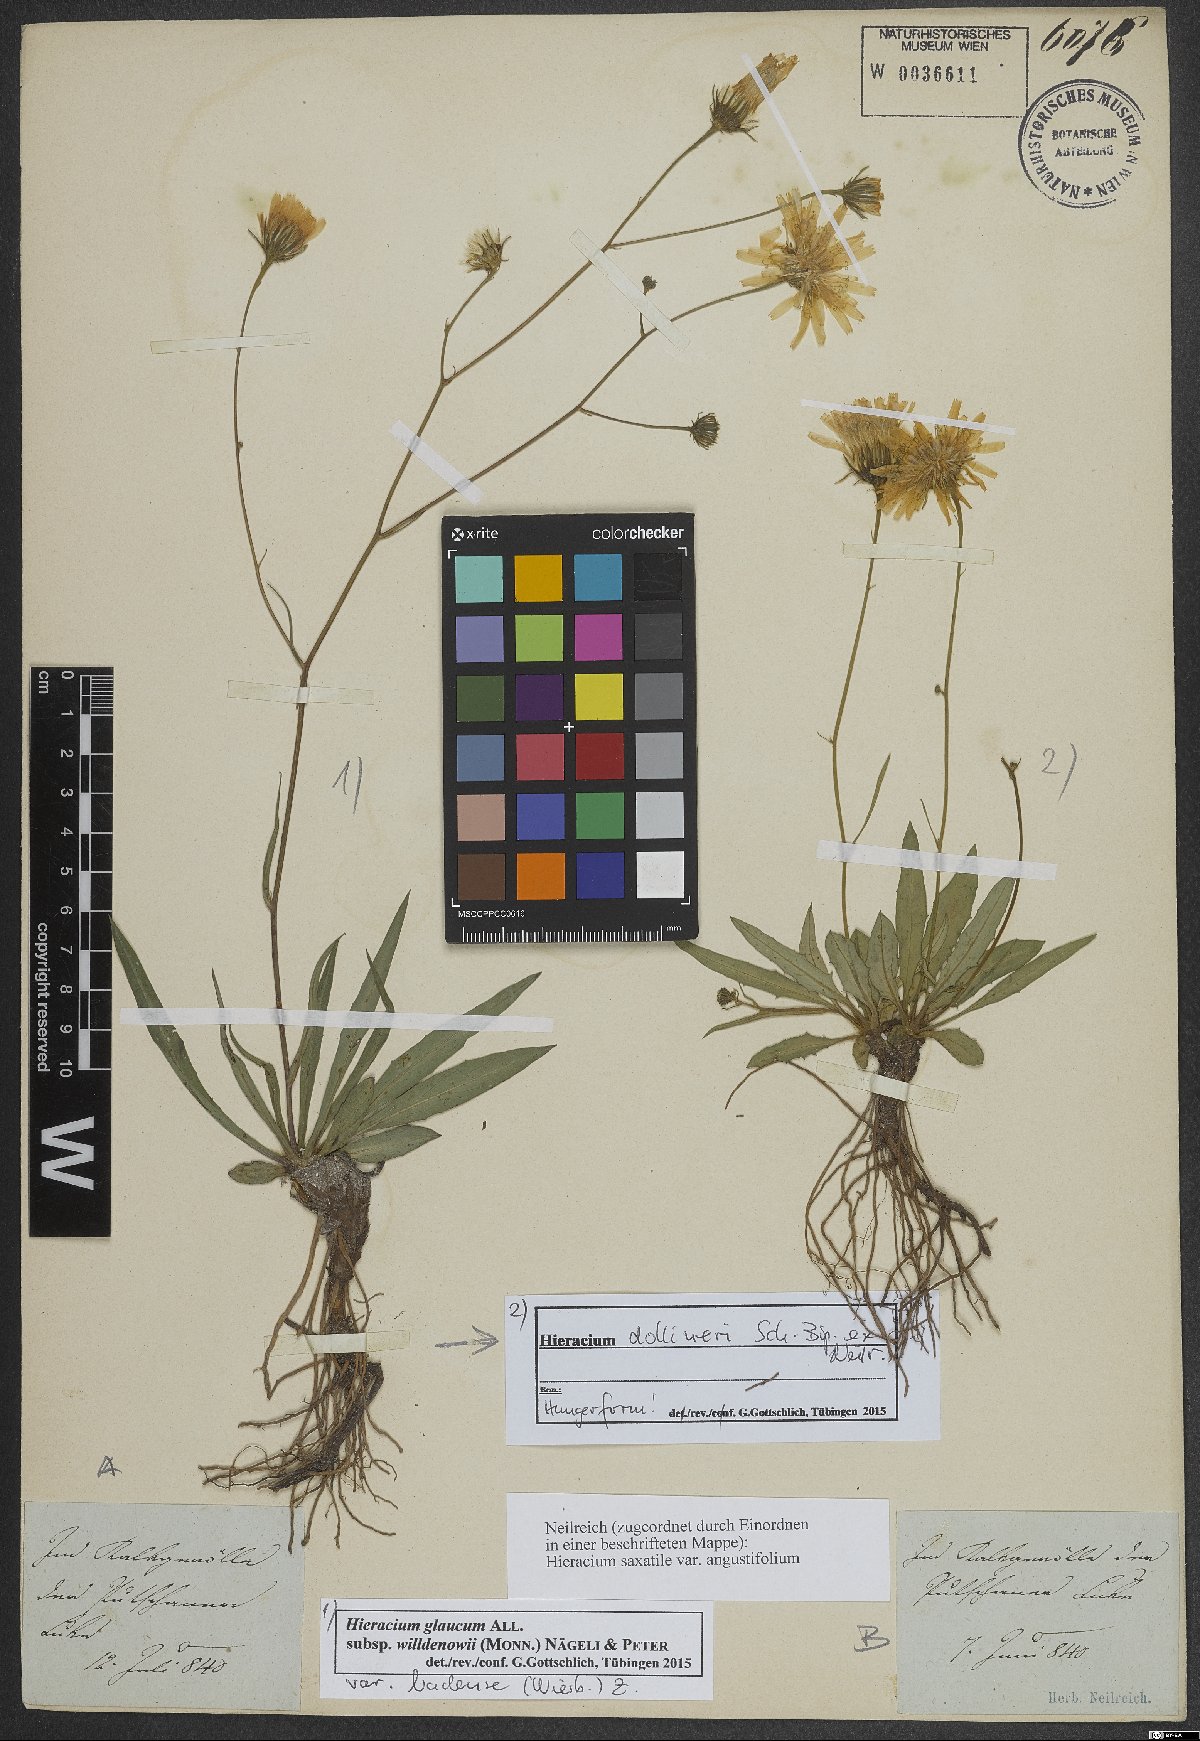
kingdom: Plantae
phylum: Tracheophyta
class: Magnoliopsida
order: Asterales
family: Asteraceae
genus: Hieracium
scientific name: Hieracium dollineri
